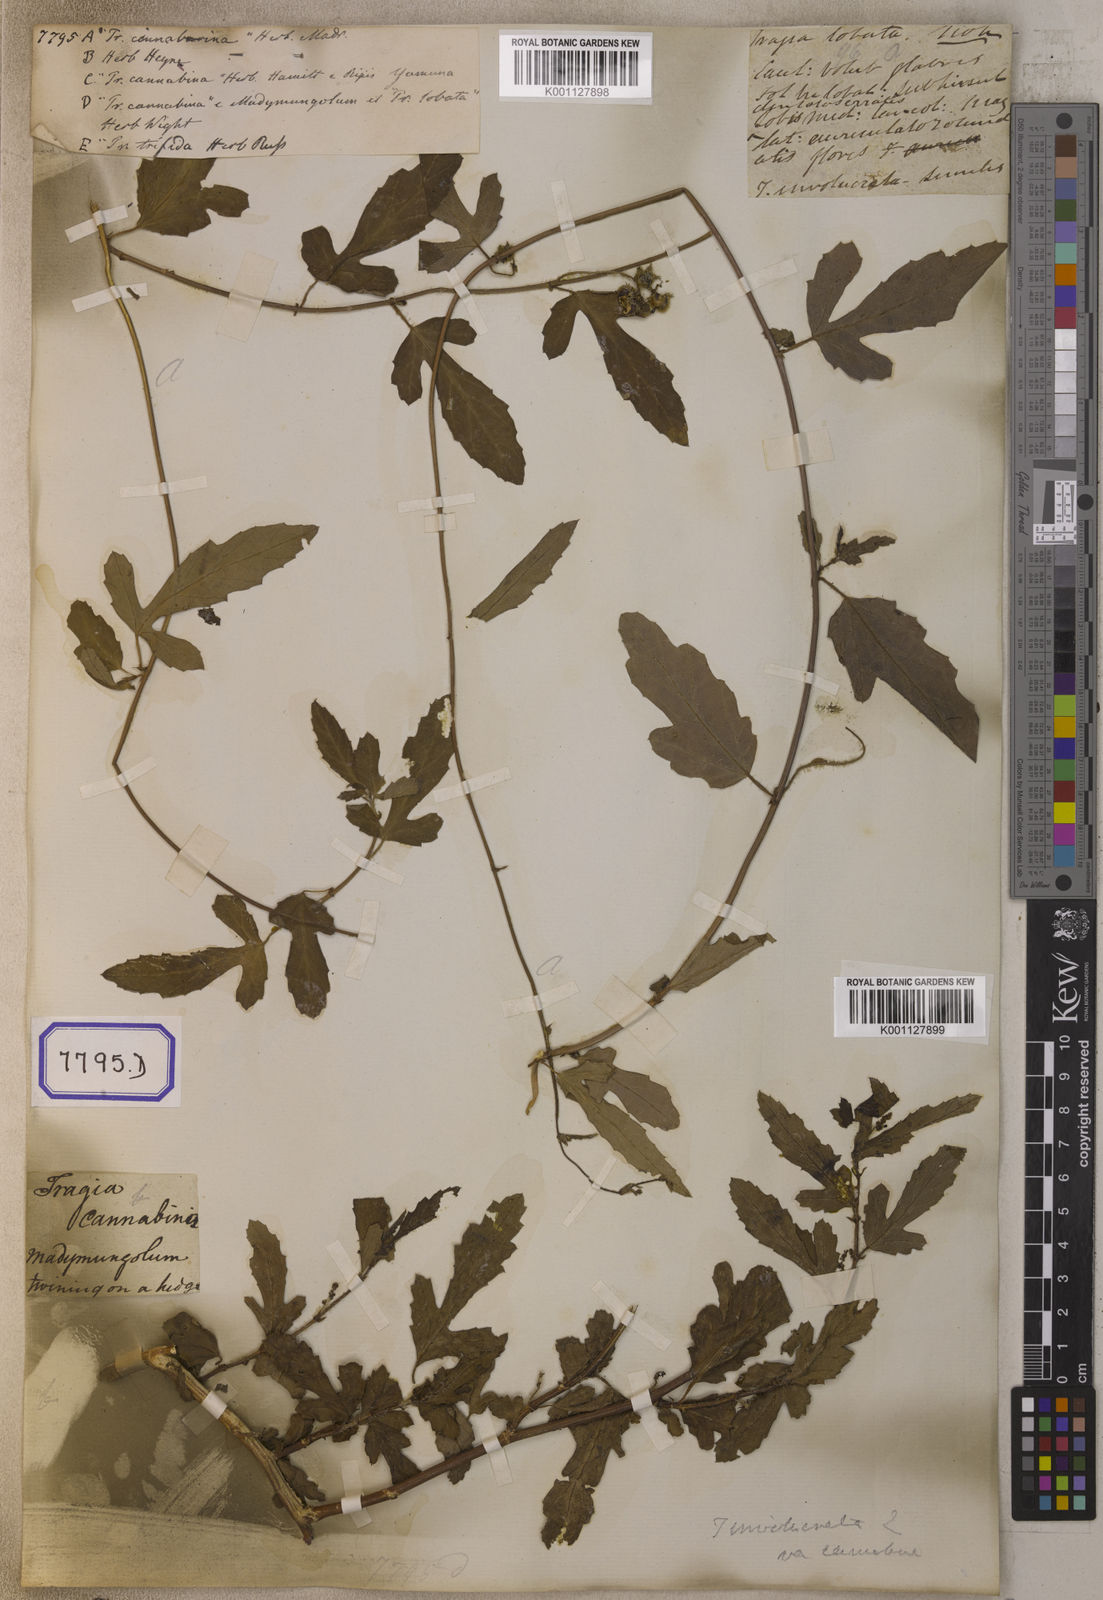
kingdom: Plantae
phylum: Tracheophyta
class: Magnoliopsida
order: Malpighiales
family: Euphorbiaceae
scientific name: Euphorbiaceae
